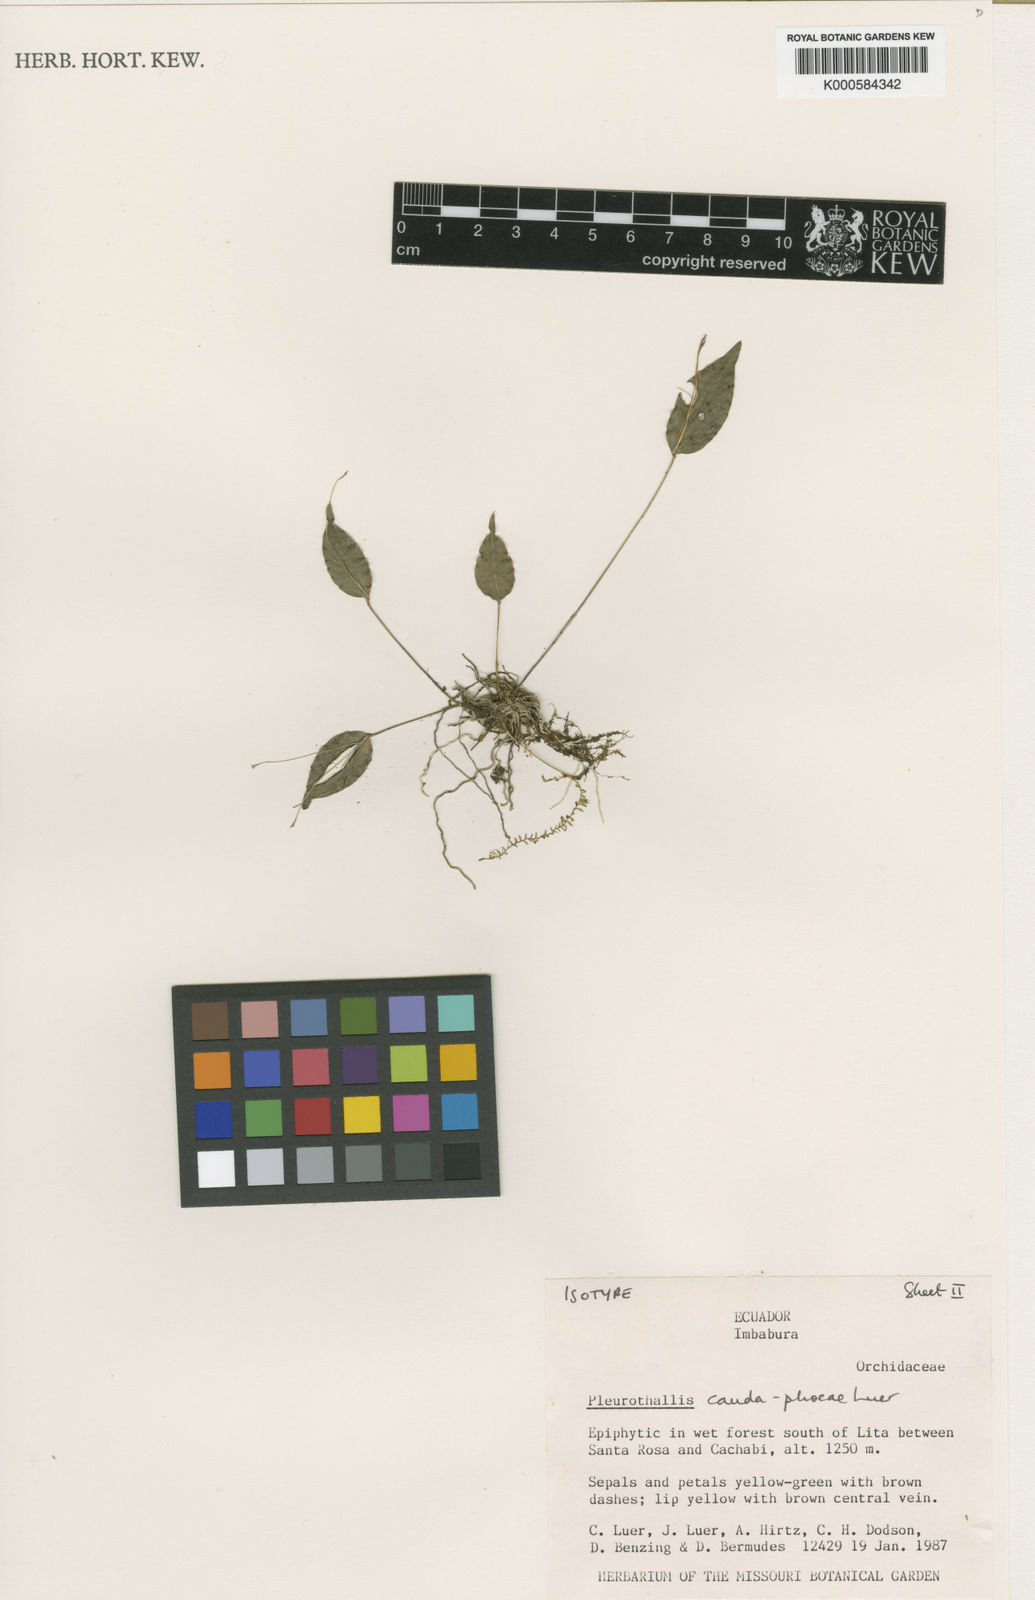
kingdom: Plantae
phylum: Tracheophyta
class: Liliopsida
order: Asparagales
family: Orchidaceae
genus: Lepanthes
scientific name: Lepanthes
